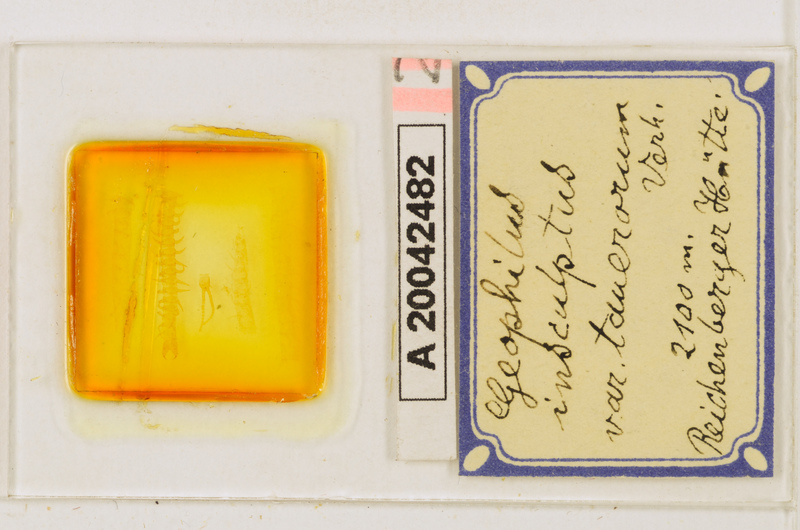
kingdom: Animalia
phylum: Arthropoda
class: Chilopoda
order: Geophilomorpha
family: Geophilidae
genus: Geophilus
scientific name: Geophilus insculptus
